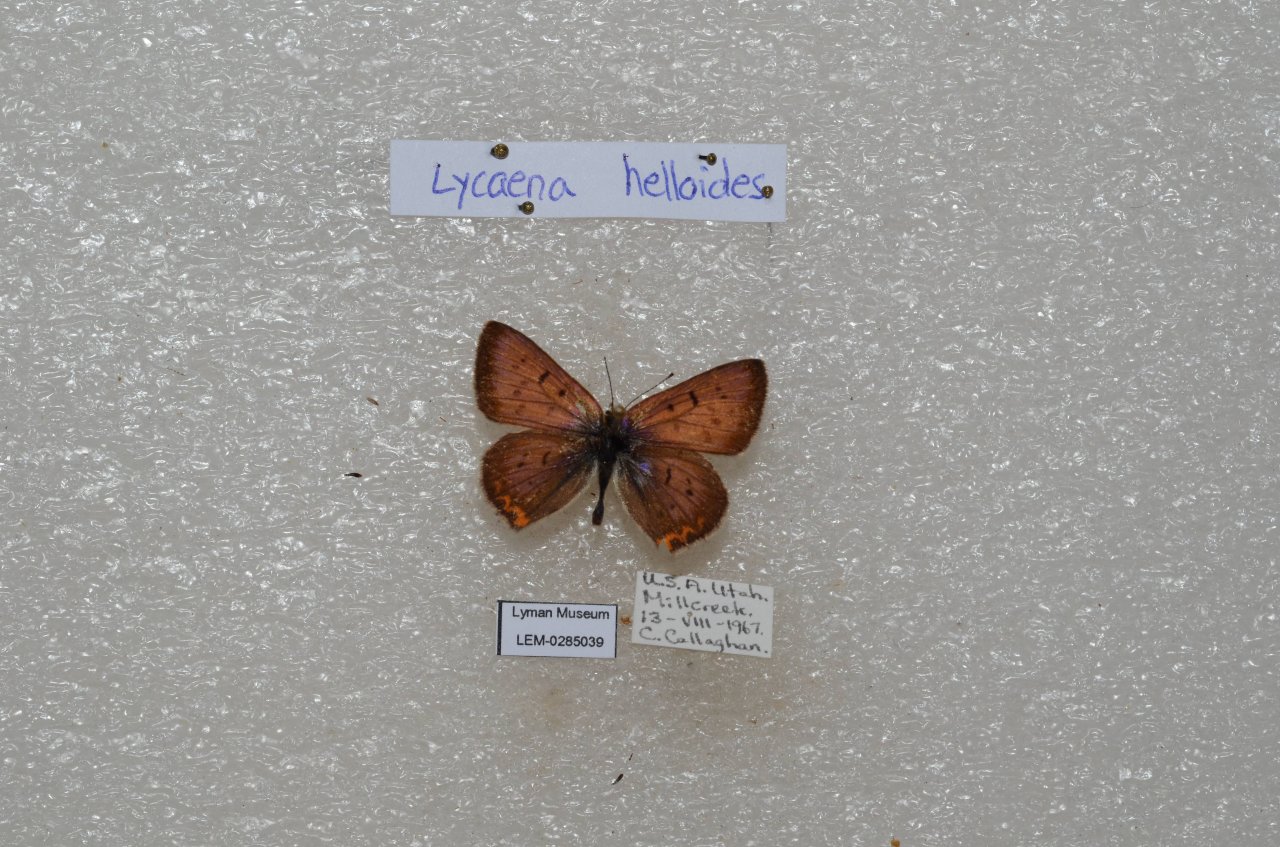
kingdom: Animalia
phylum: Arthropoda
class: Insecta
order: Lepidoptera
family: Sesiidae
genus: Sesia
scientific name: Sesia Lycaena helloides
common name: Purplish Copper
